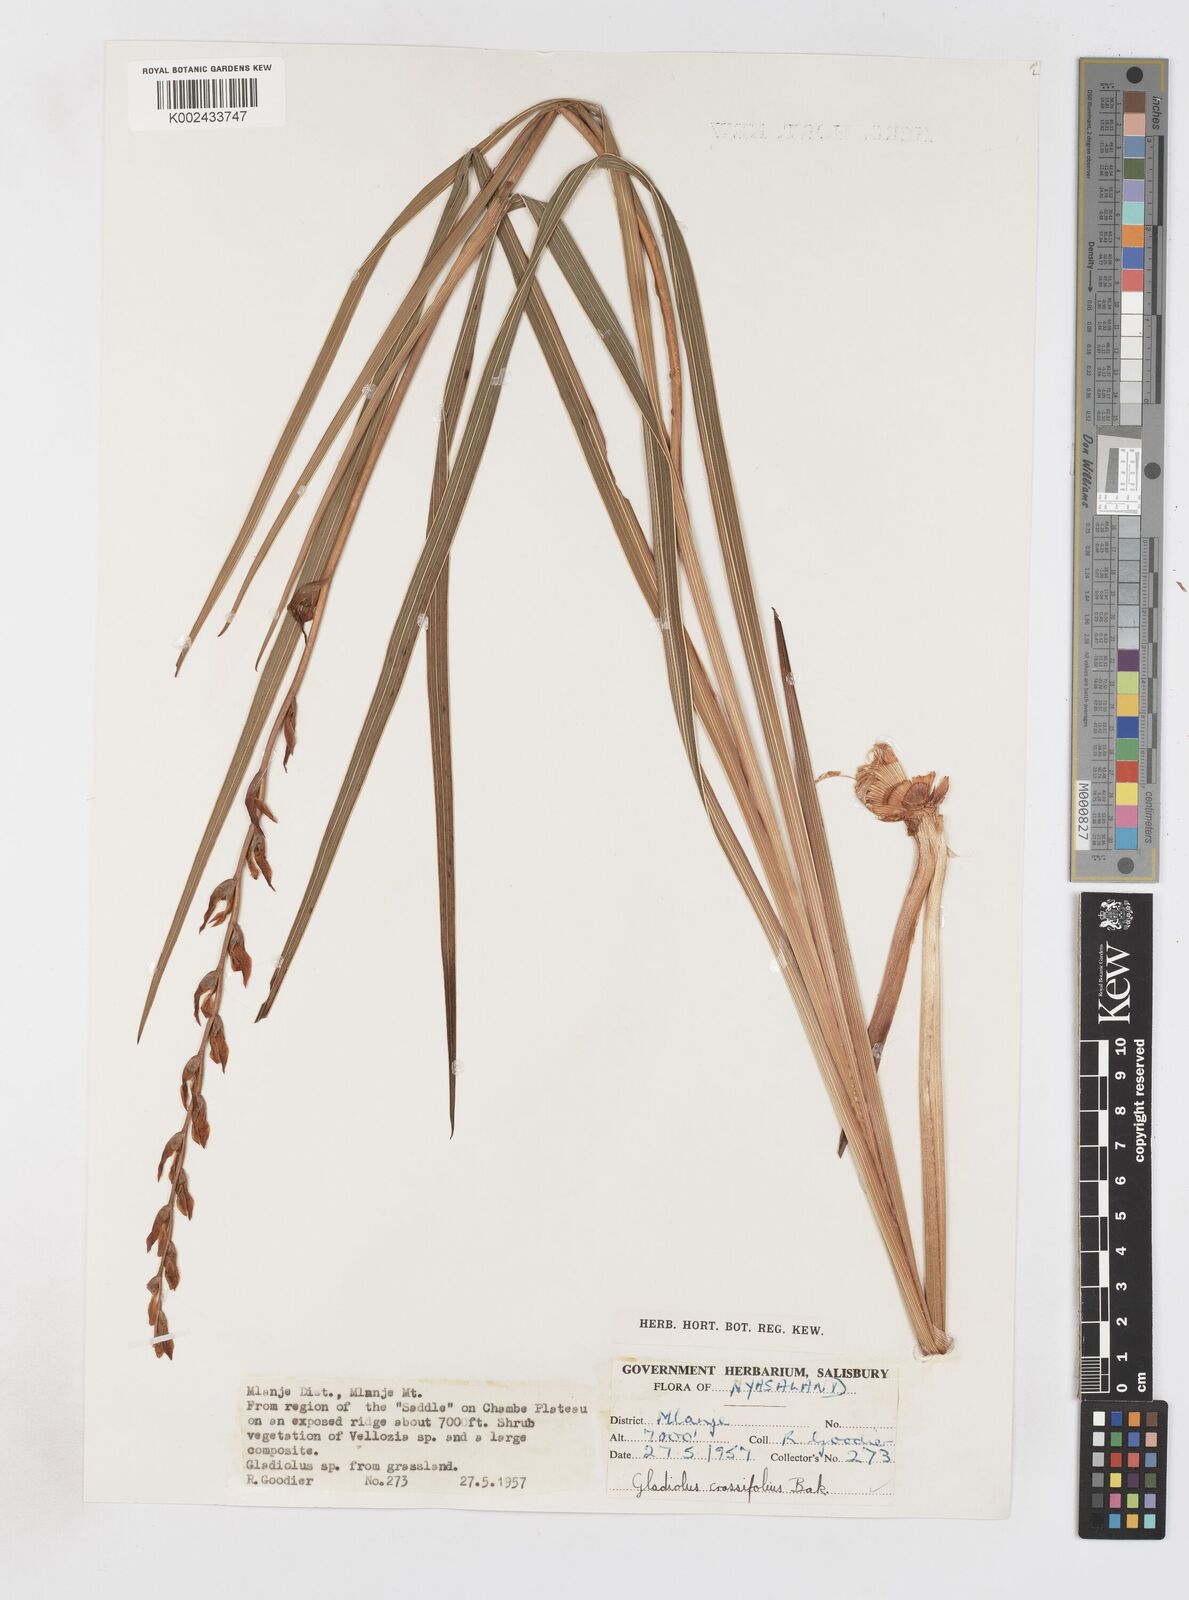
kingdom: Plantae
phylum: Tracheophyta
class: Liliopsida
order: Asparagales
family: Iridaceae
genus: Gladiolus
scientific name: Gladiolus crassifolius
